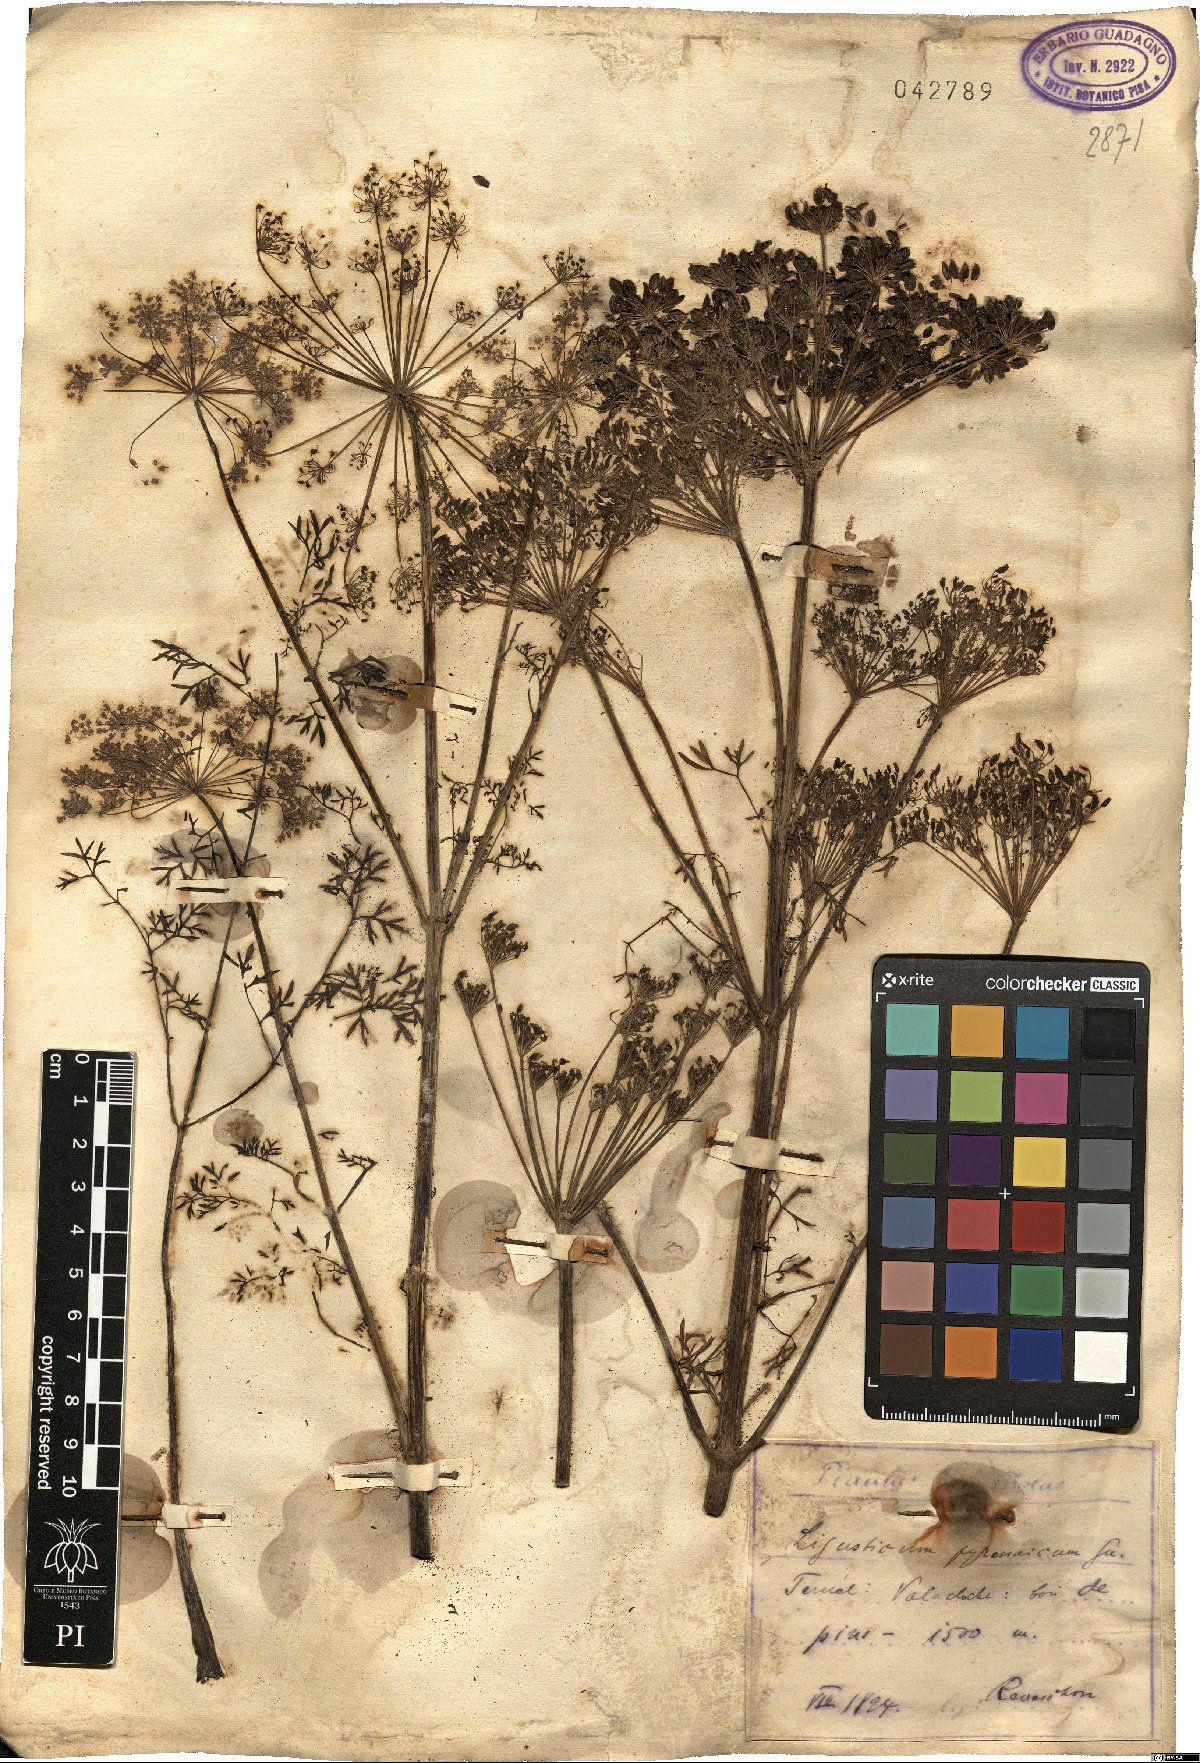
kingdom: Plantae
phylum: Tracheophyta
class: Magnoliopsida
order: Apiales
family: Apiaceae
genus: Ligusticum
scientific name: Ligusticum
